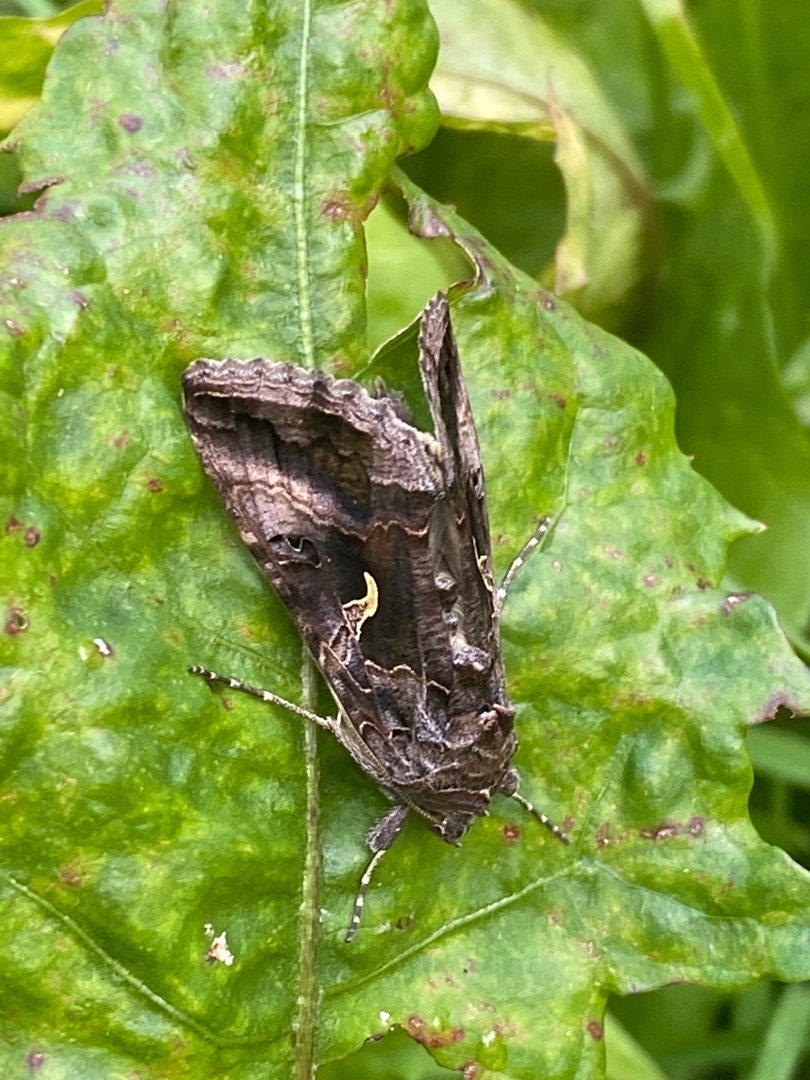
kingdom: Animalia
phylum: Arthropoda
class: Insecta
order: Lepidoptera
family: Noctuidae
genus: Autographa
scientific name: Autographa gamma
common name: Gammaugle
